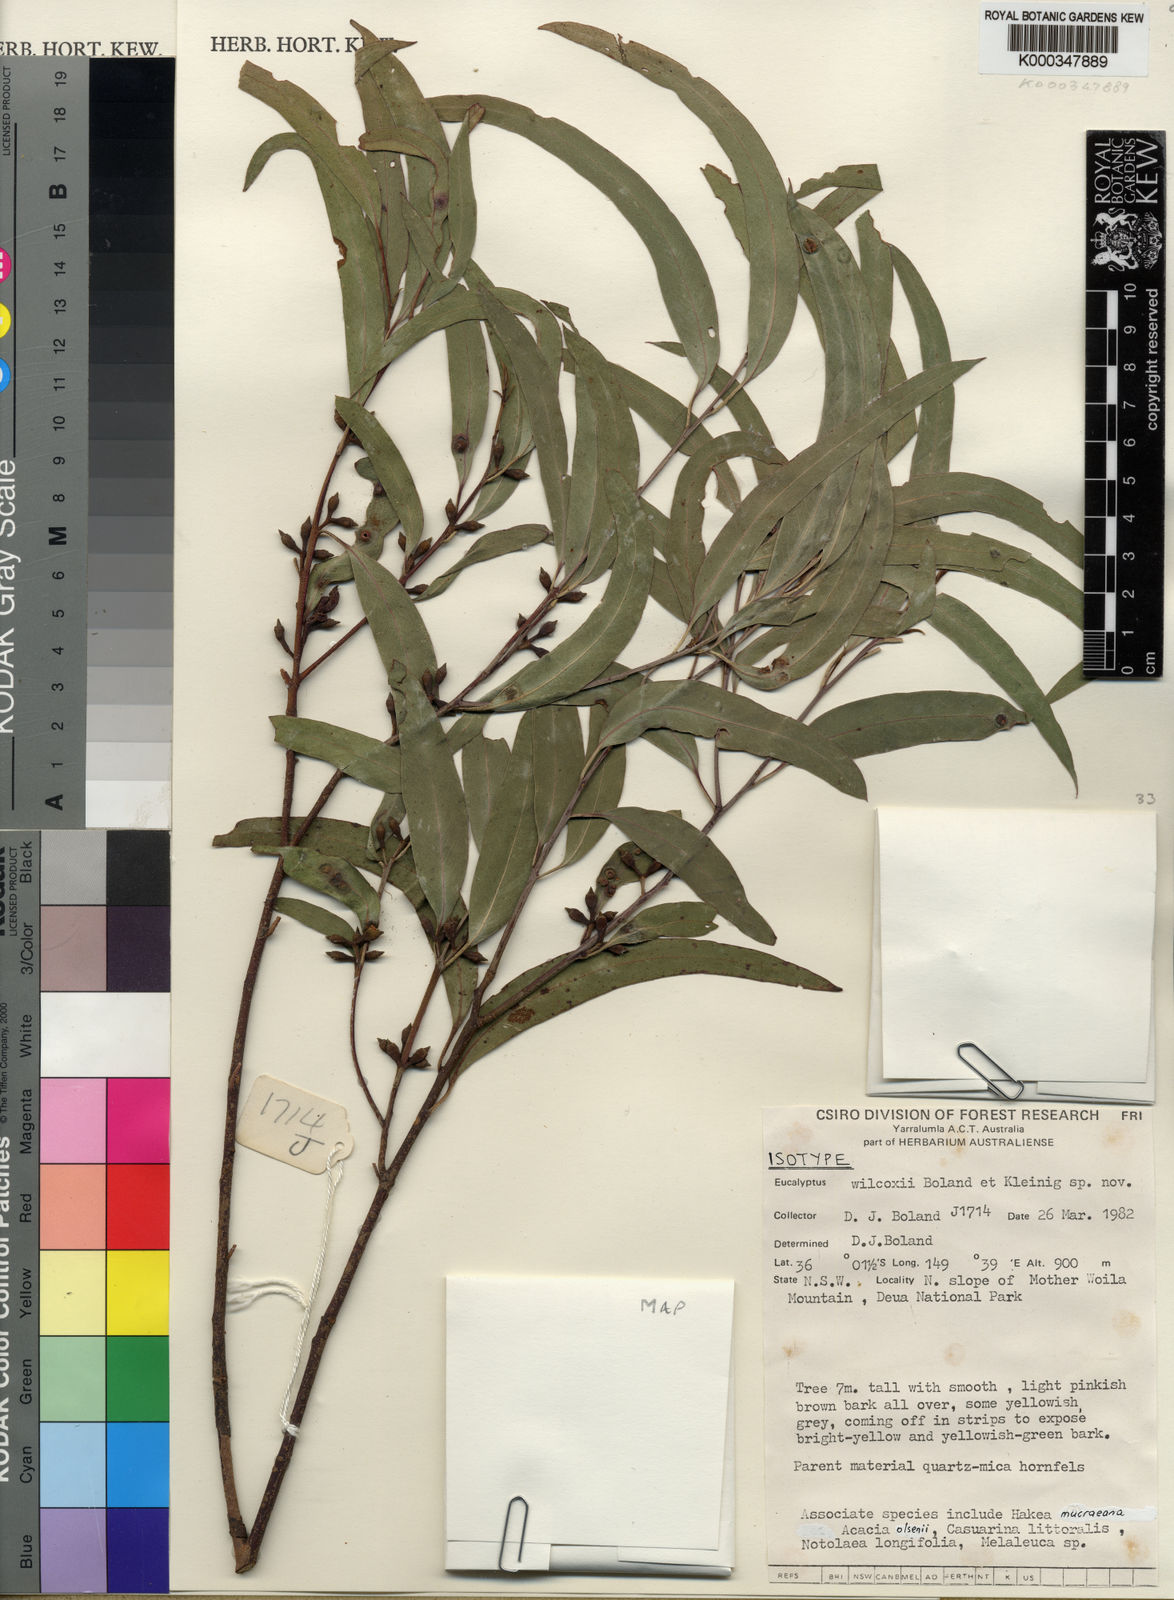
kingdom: Plantae
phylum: Tracheophyta
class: Magnoliopsida
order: Myrtales
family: Myrtaceae
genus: Eucalyptus
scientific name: Eucalyptus wilcoxii
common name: Deua gum
